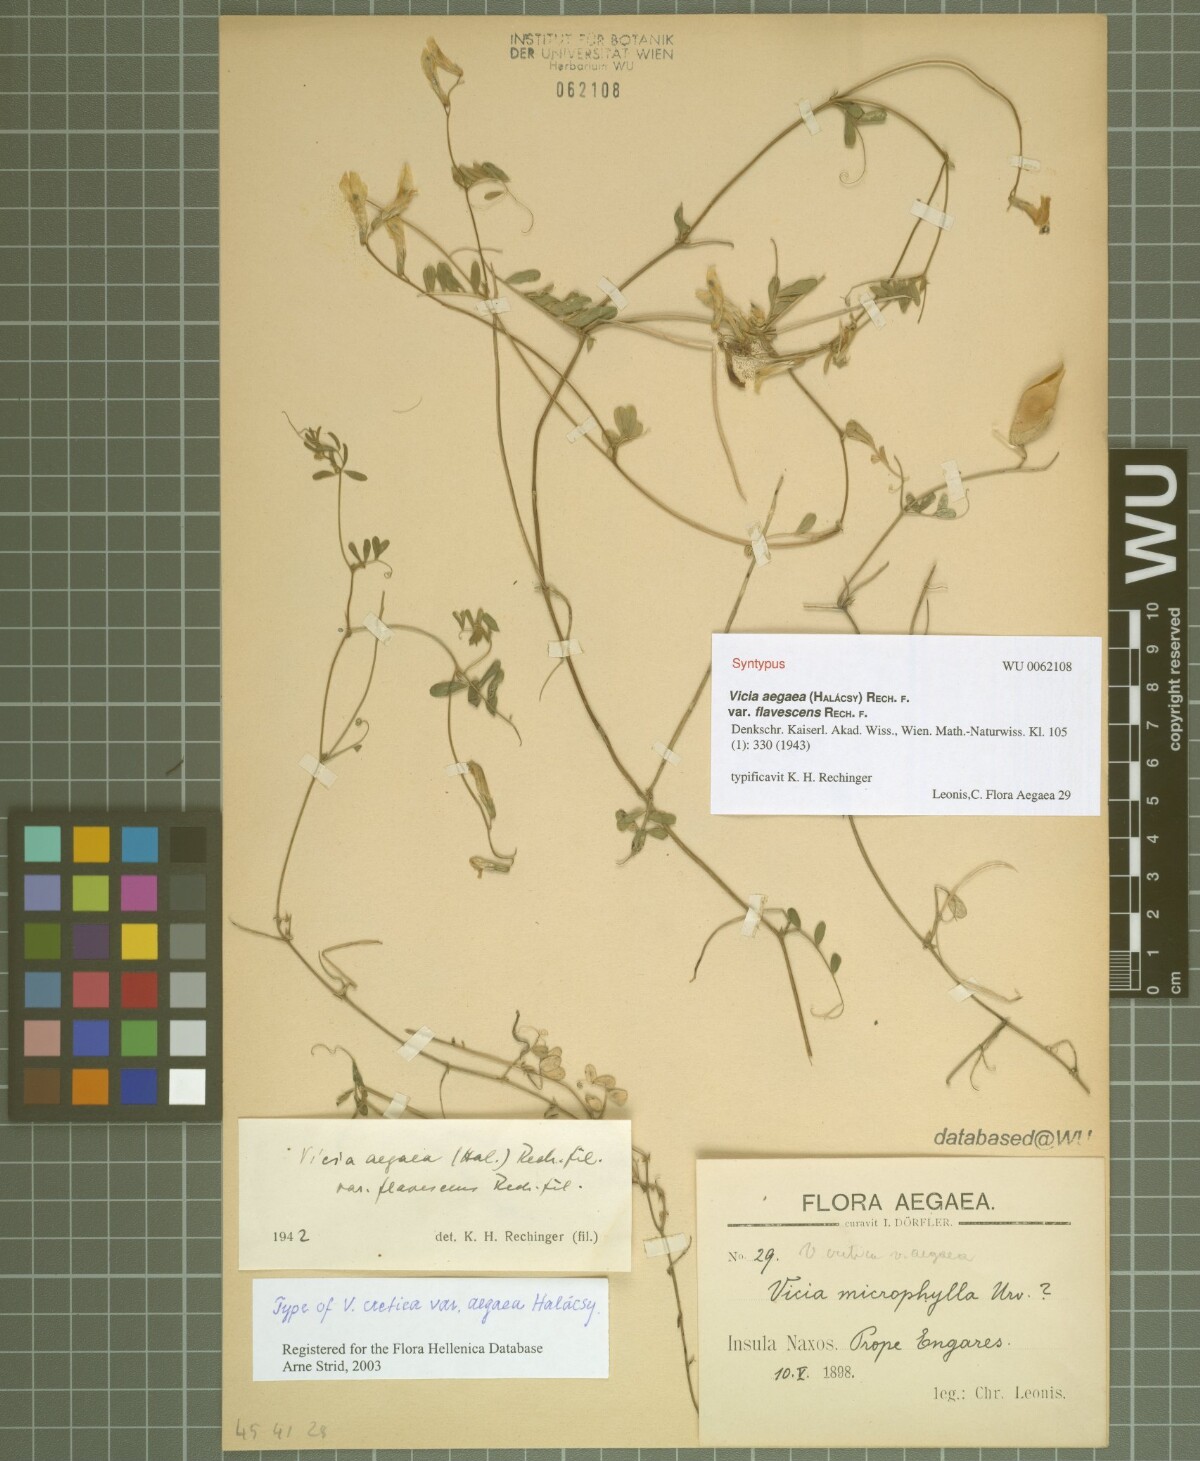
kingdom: Plantae
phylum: Tracheophyta
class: Magnoliopsida
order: Fabales
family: Fabaceae
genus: Vicia
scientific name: Vicia cretica
